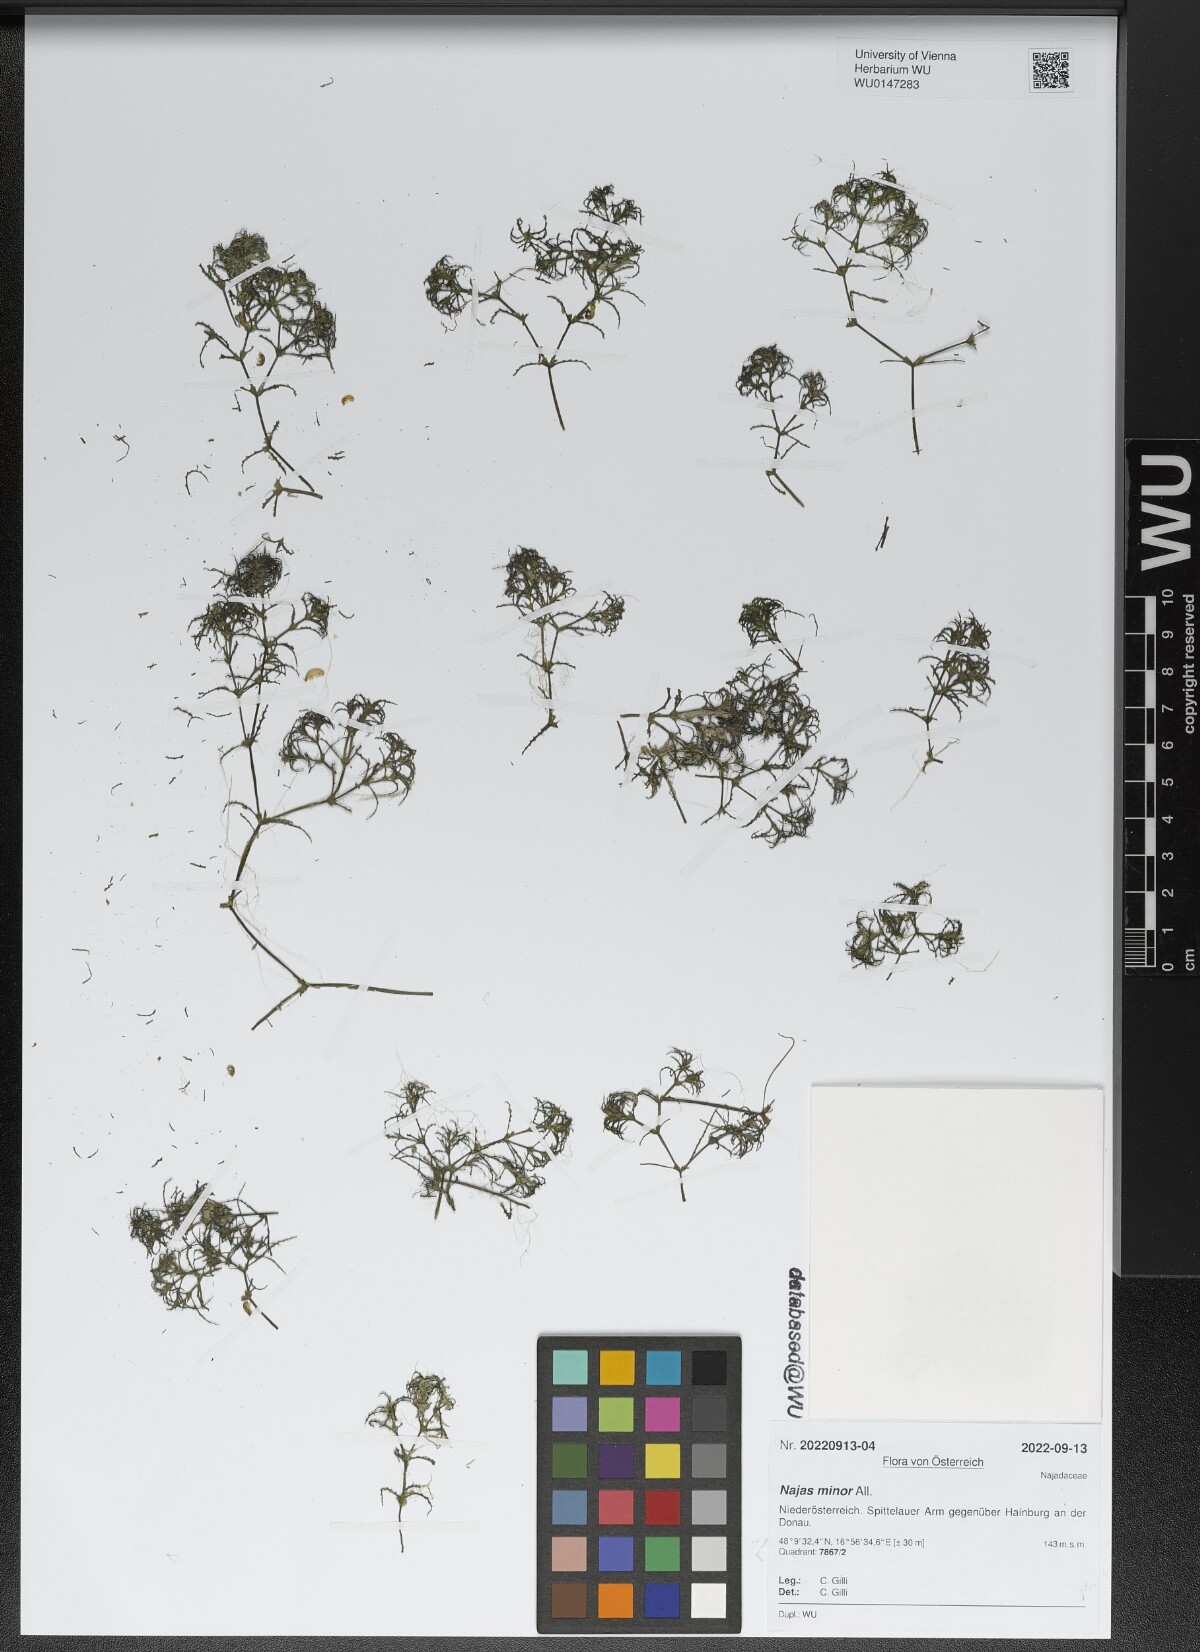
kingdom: Plantae
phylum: Tracheophyta
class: Liliopsida
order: Alismatales
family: Hydrocharitaceae
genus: Najas
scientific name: Najas minor
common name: Brittle naiad
